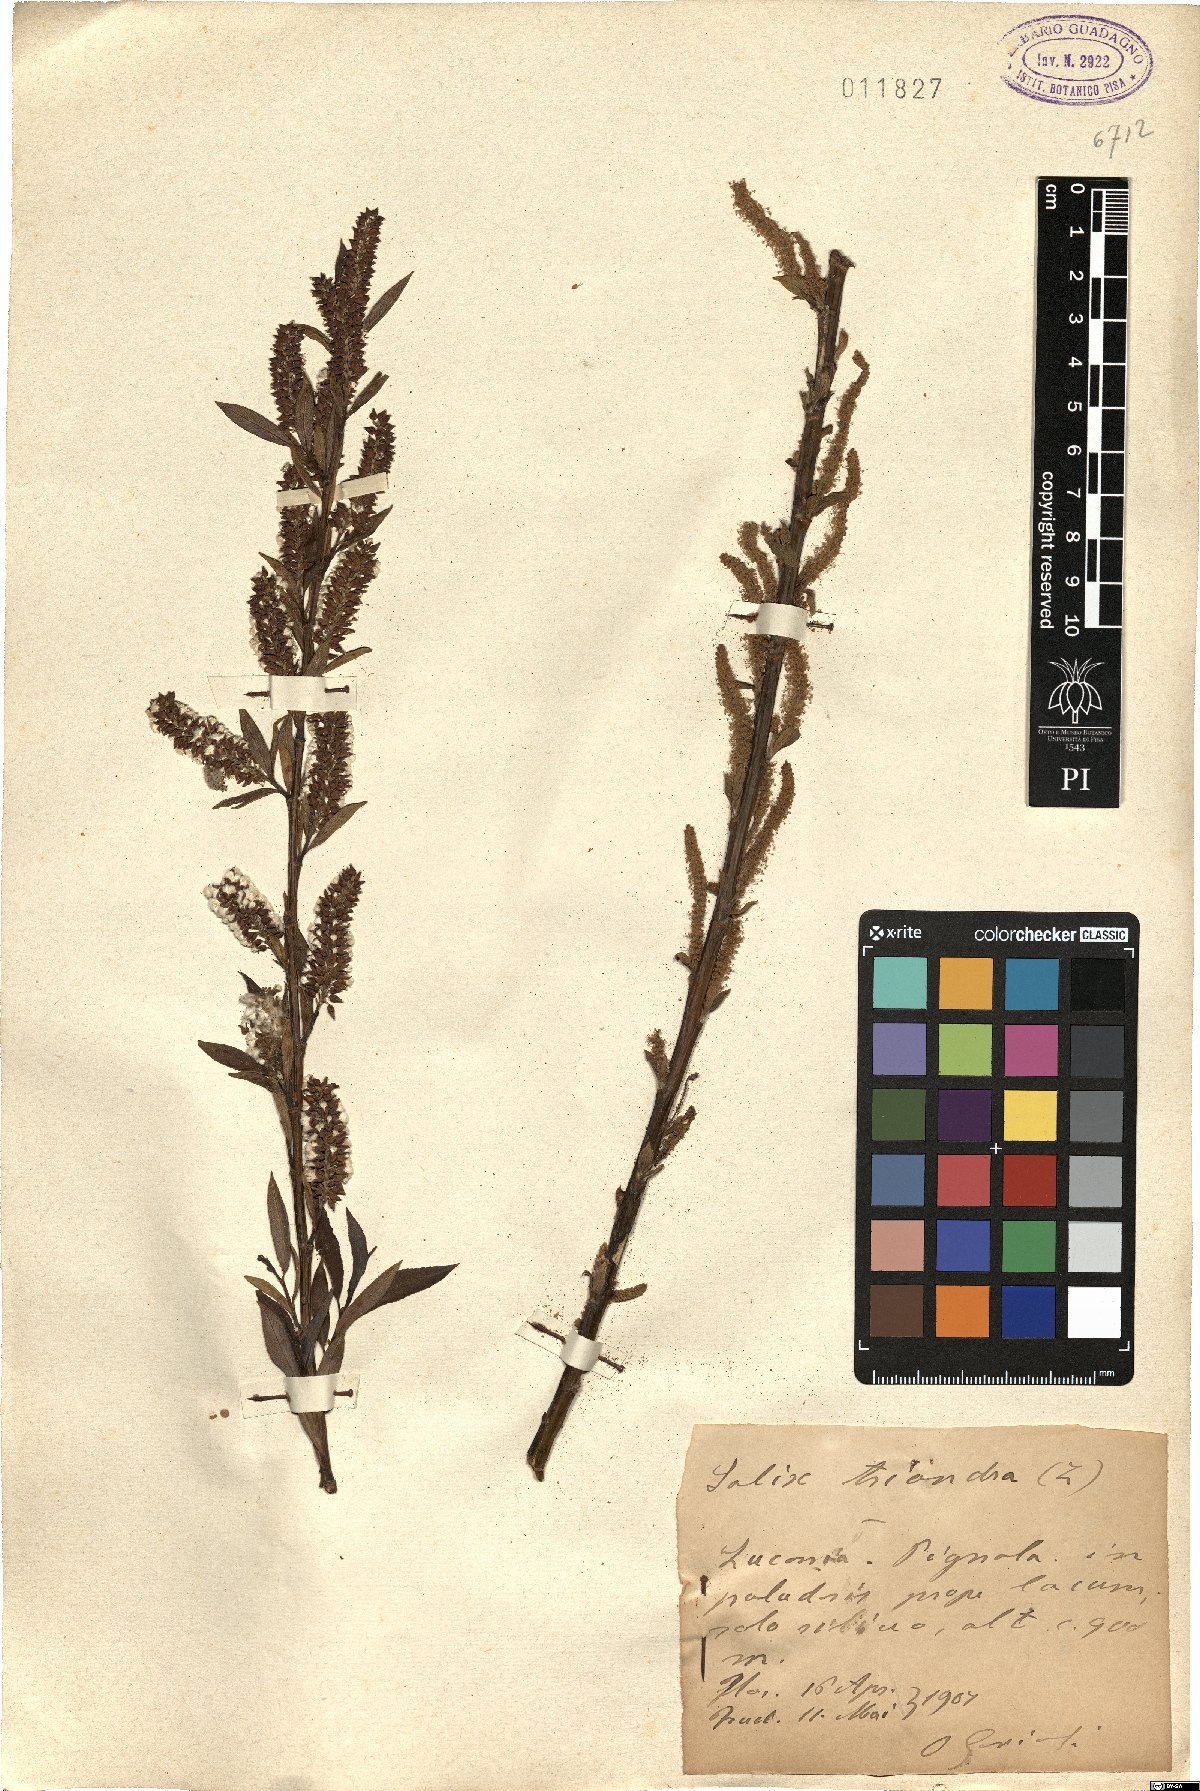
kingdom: Plantae
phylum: Tracheophyta
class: Magnoliopsida
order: Malpighiales
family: Salicaceae
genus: Salix
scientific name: Salix triandra
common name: Almond willow
